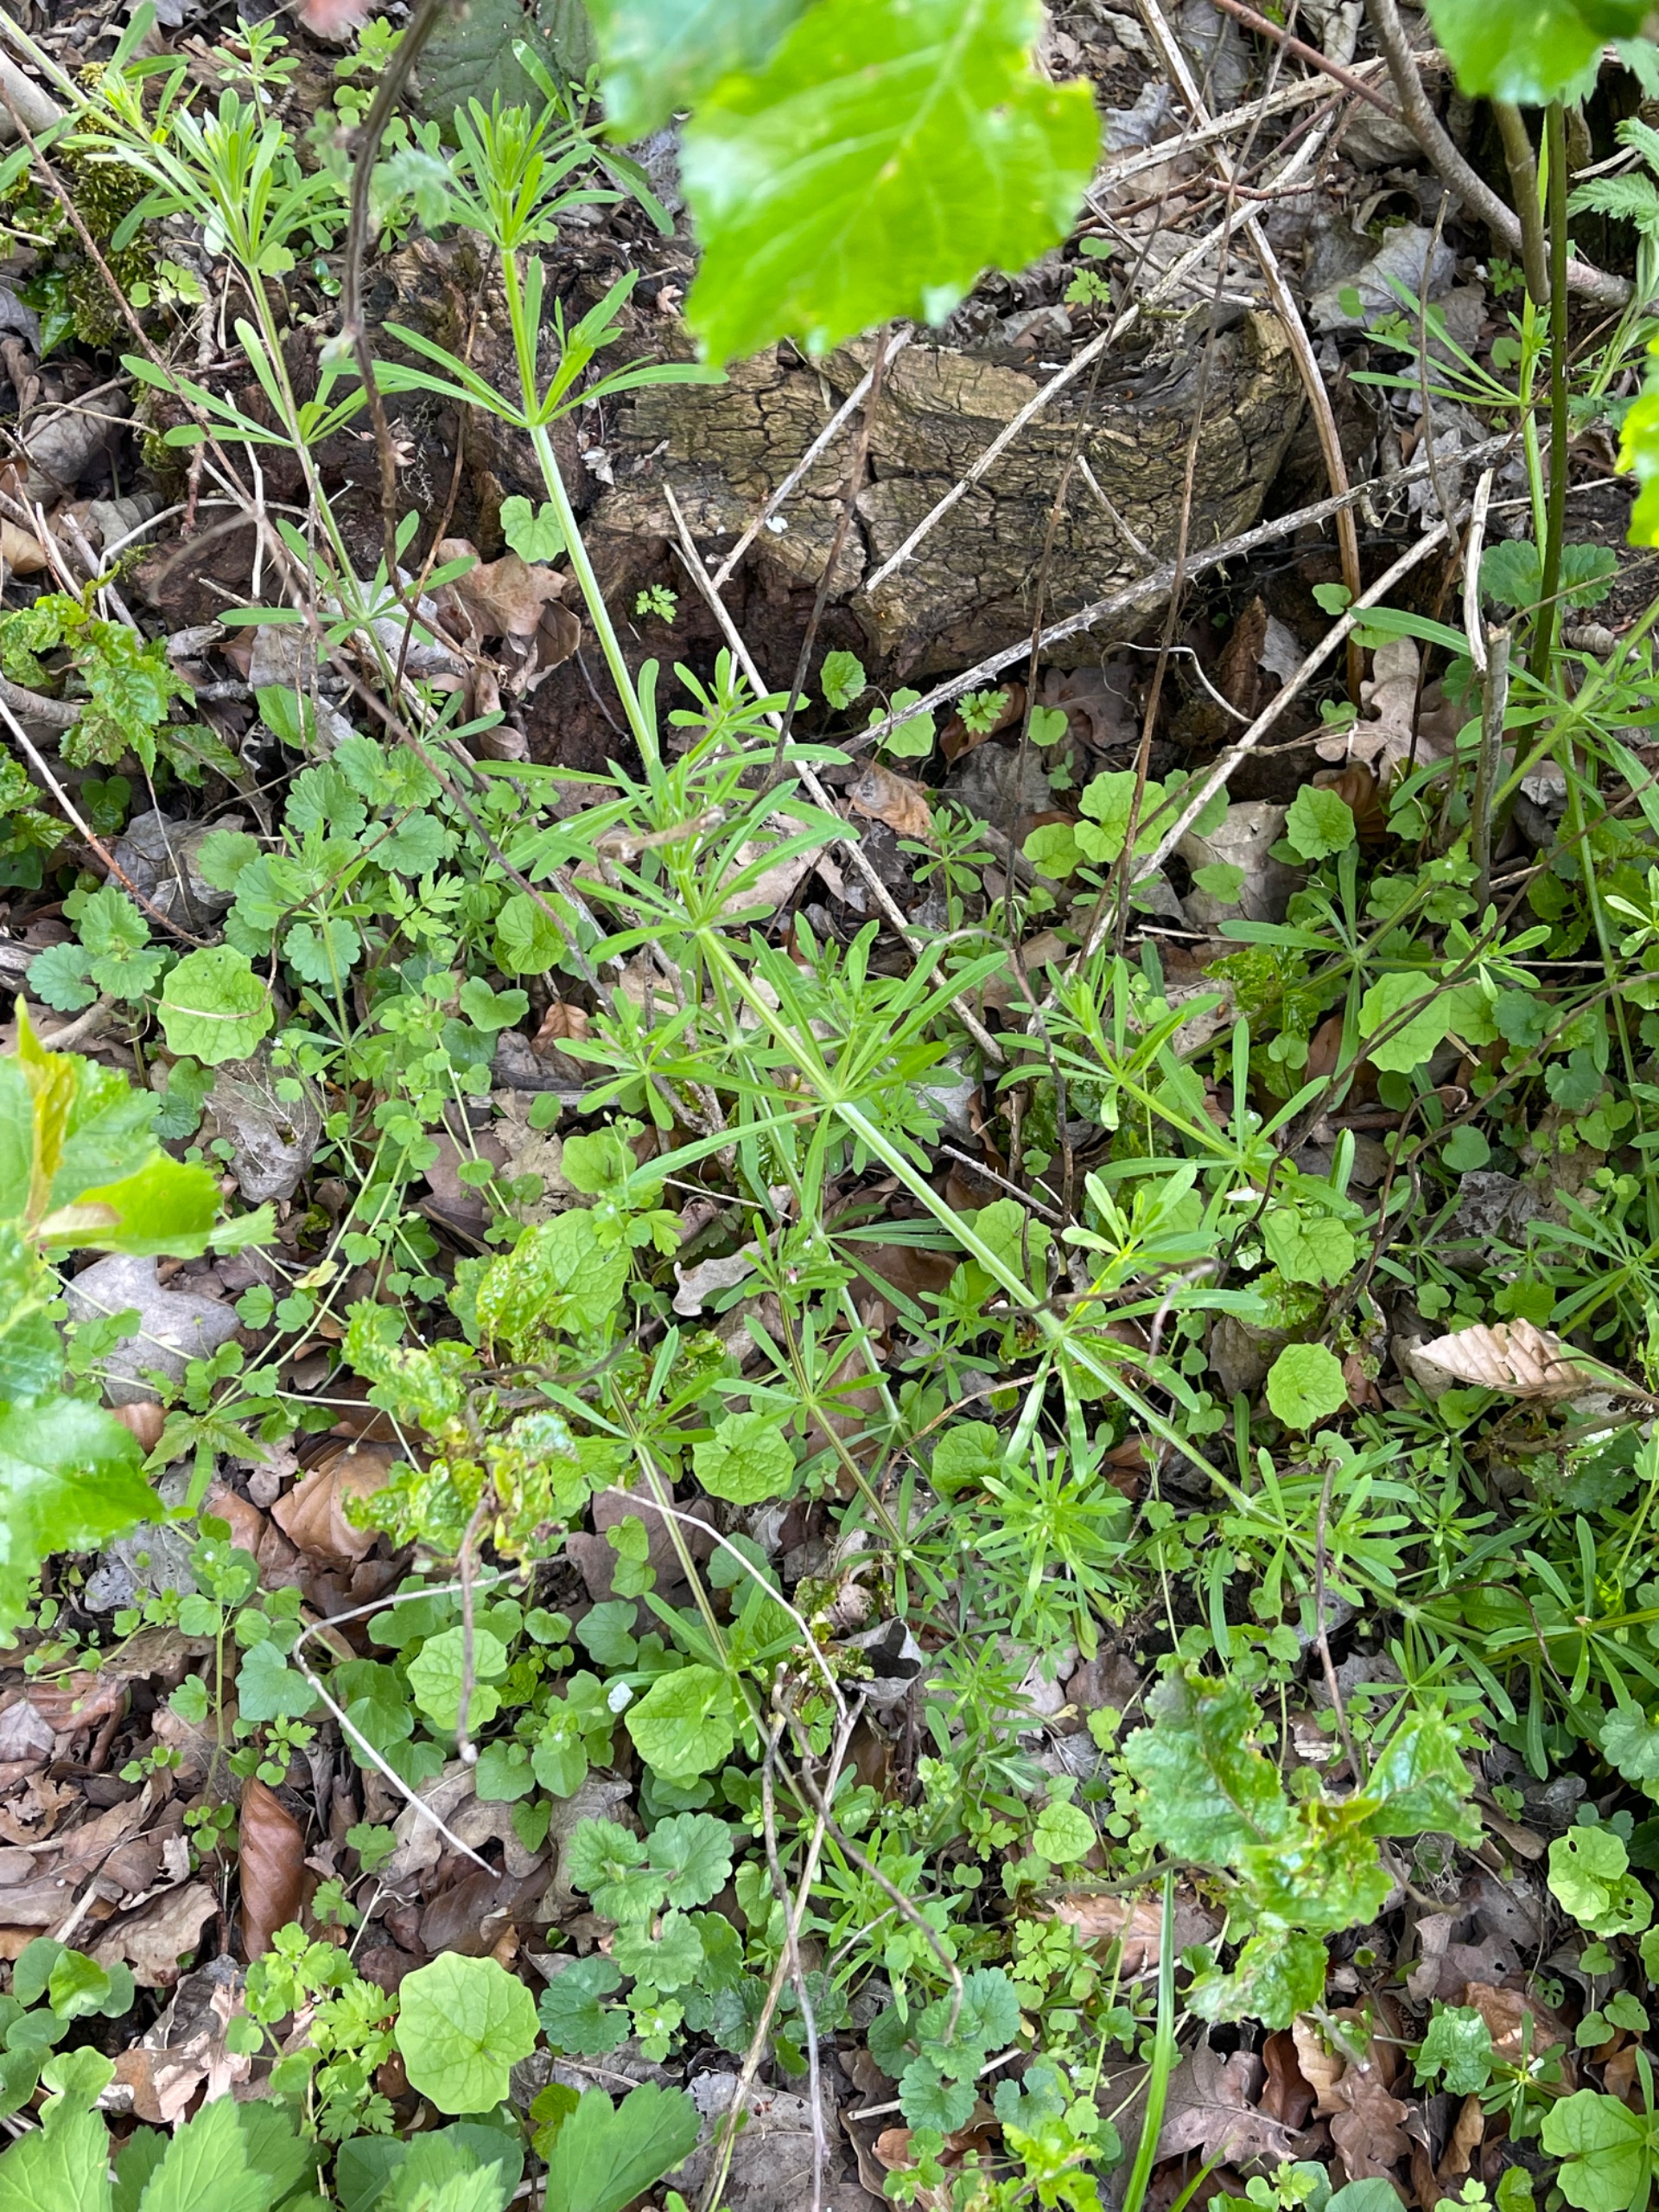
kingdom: Plantae
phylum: Tracheophyta
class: Magnoliopsida
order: Gentianales
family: Rubiaceae
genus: Galium
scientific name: Galium aparine
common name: Burre-snerre
